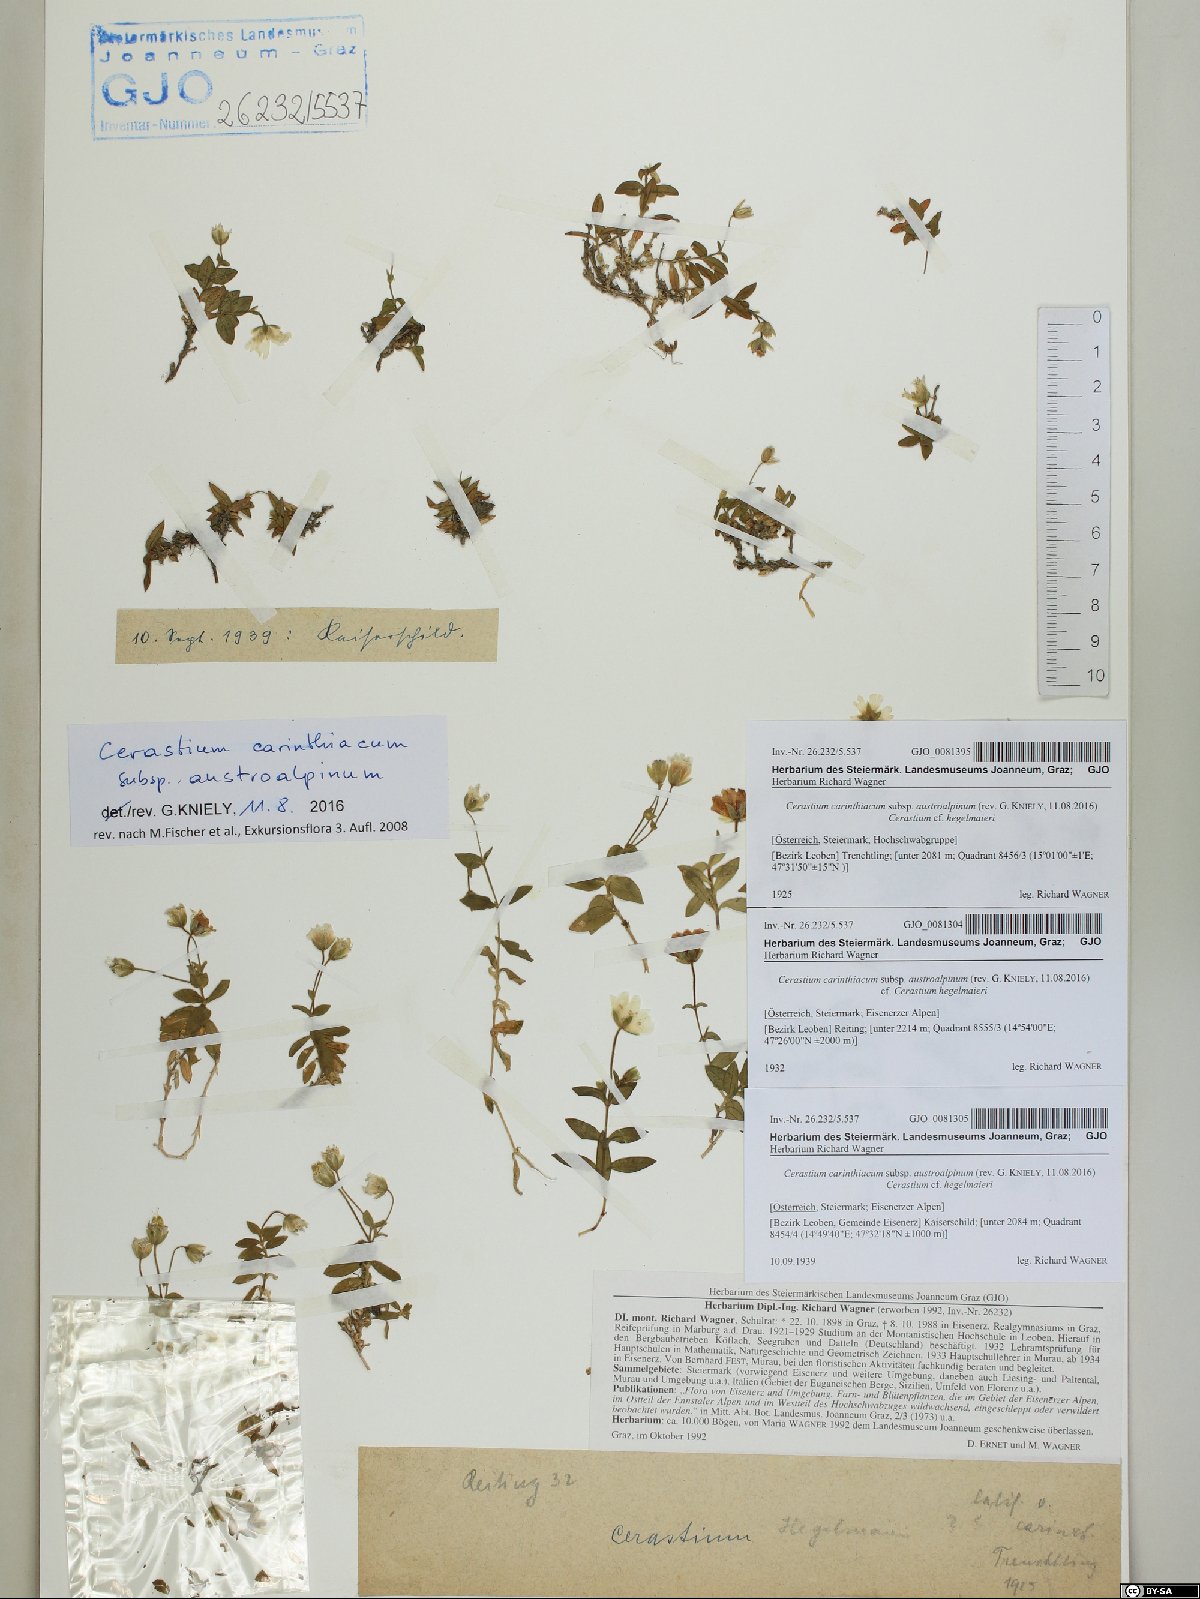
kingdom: Plantae
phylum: Tracheophyta
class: Magnoliopsida
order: Caryophyllales
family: Caryophyllaceae
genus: Cerastium
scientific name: Cerastium carinthiacum
